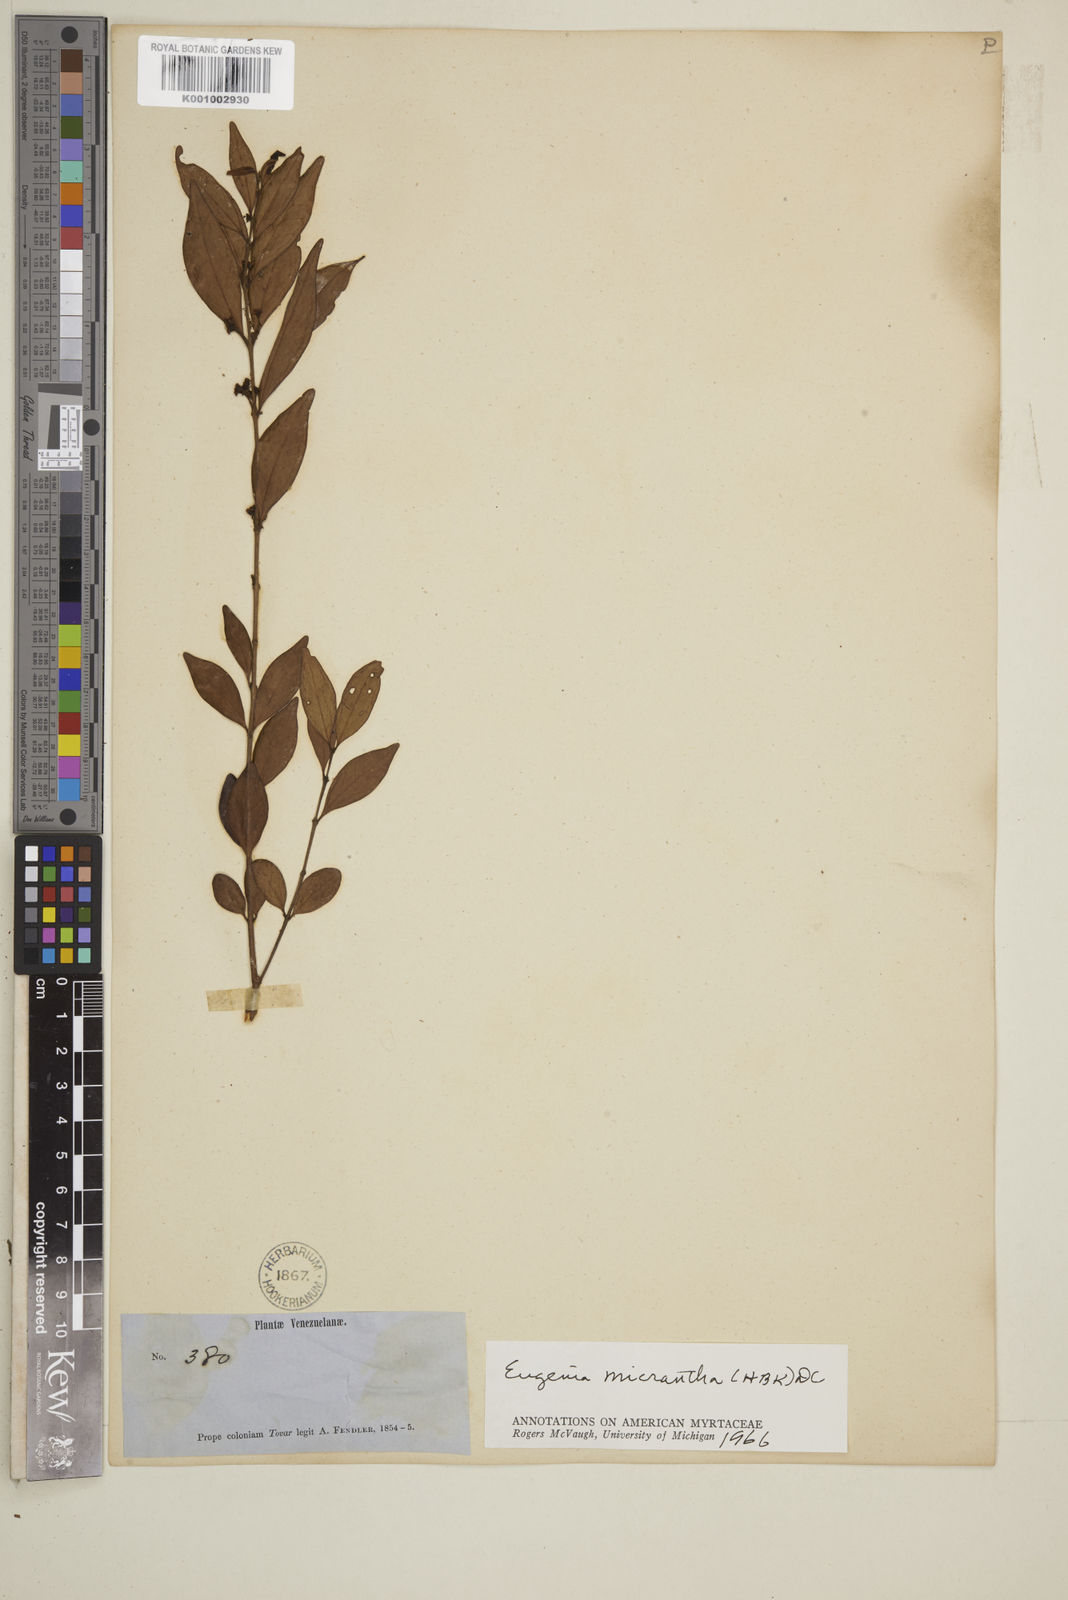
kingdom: Plantae
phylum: Tracheophyta
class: Magnoliopsida
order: Myrtales
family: Myrtaceae
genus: Eugenia
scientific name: Eugenia monticola
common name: Birds berry
